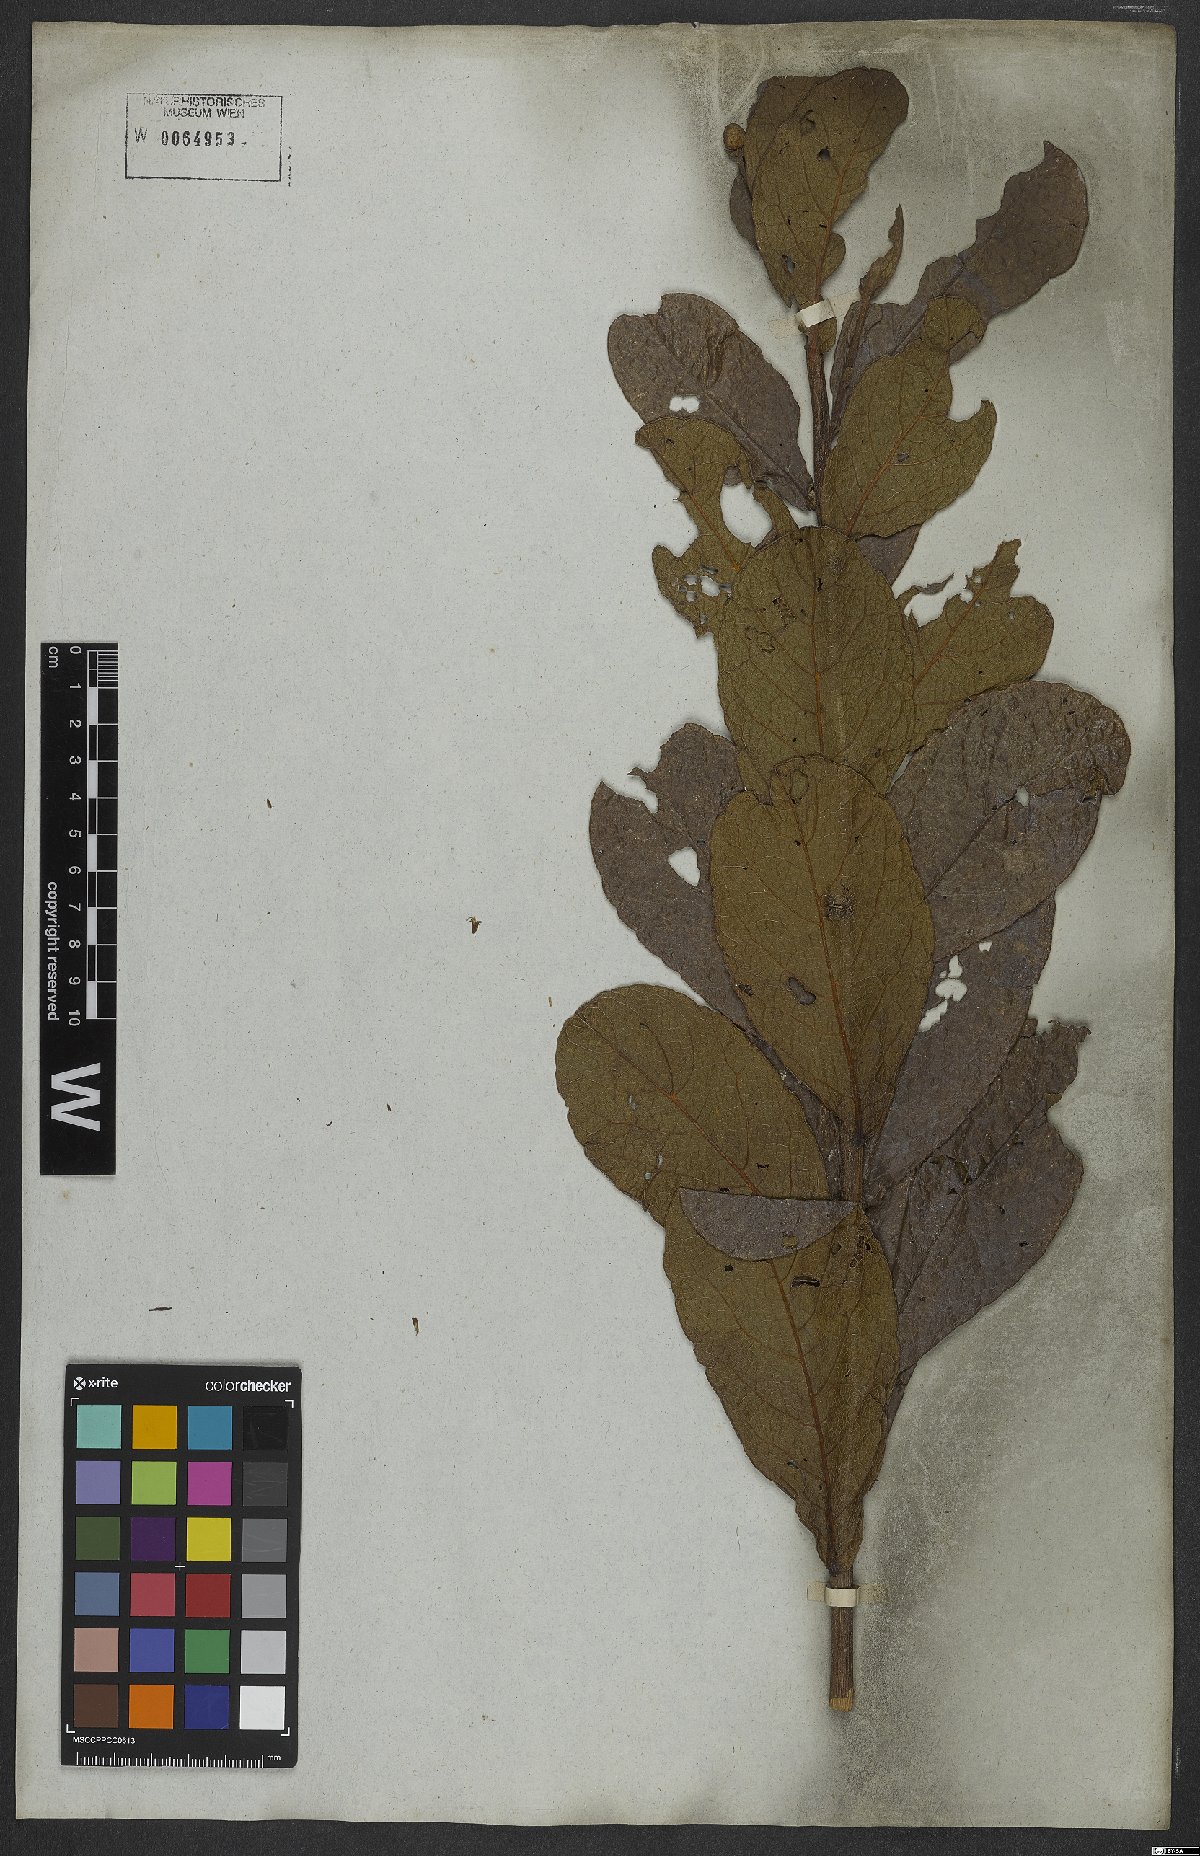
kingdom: Plantae
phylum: Tracheophyta
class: Magnoliopsida
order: Asterales
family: Asteraceae
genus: Lessingianthus
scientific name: Lessingianthus zuccarinianus
